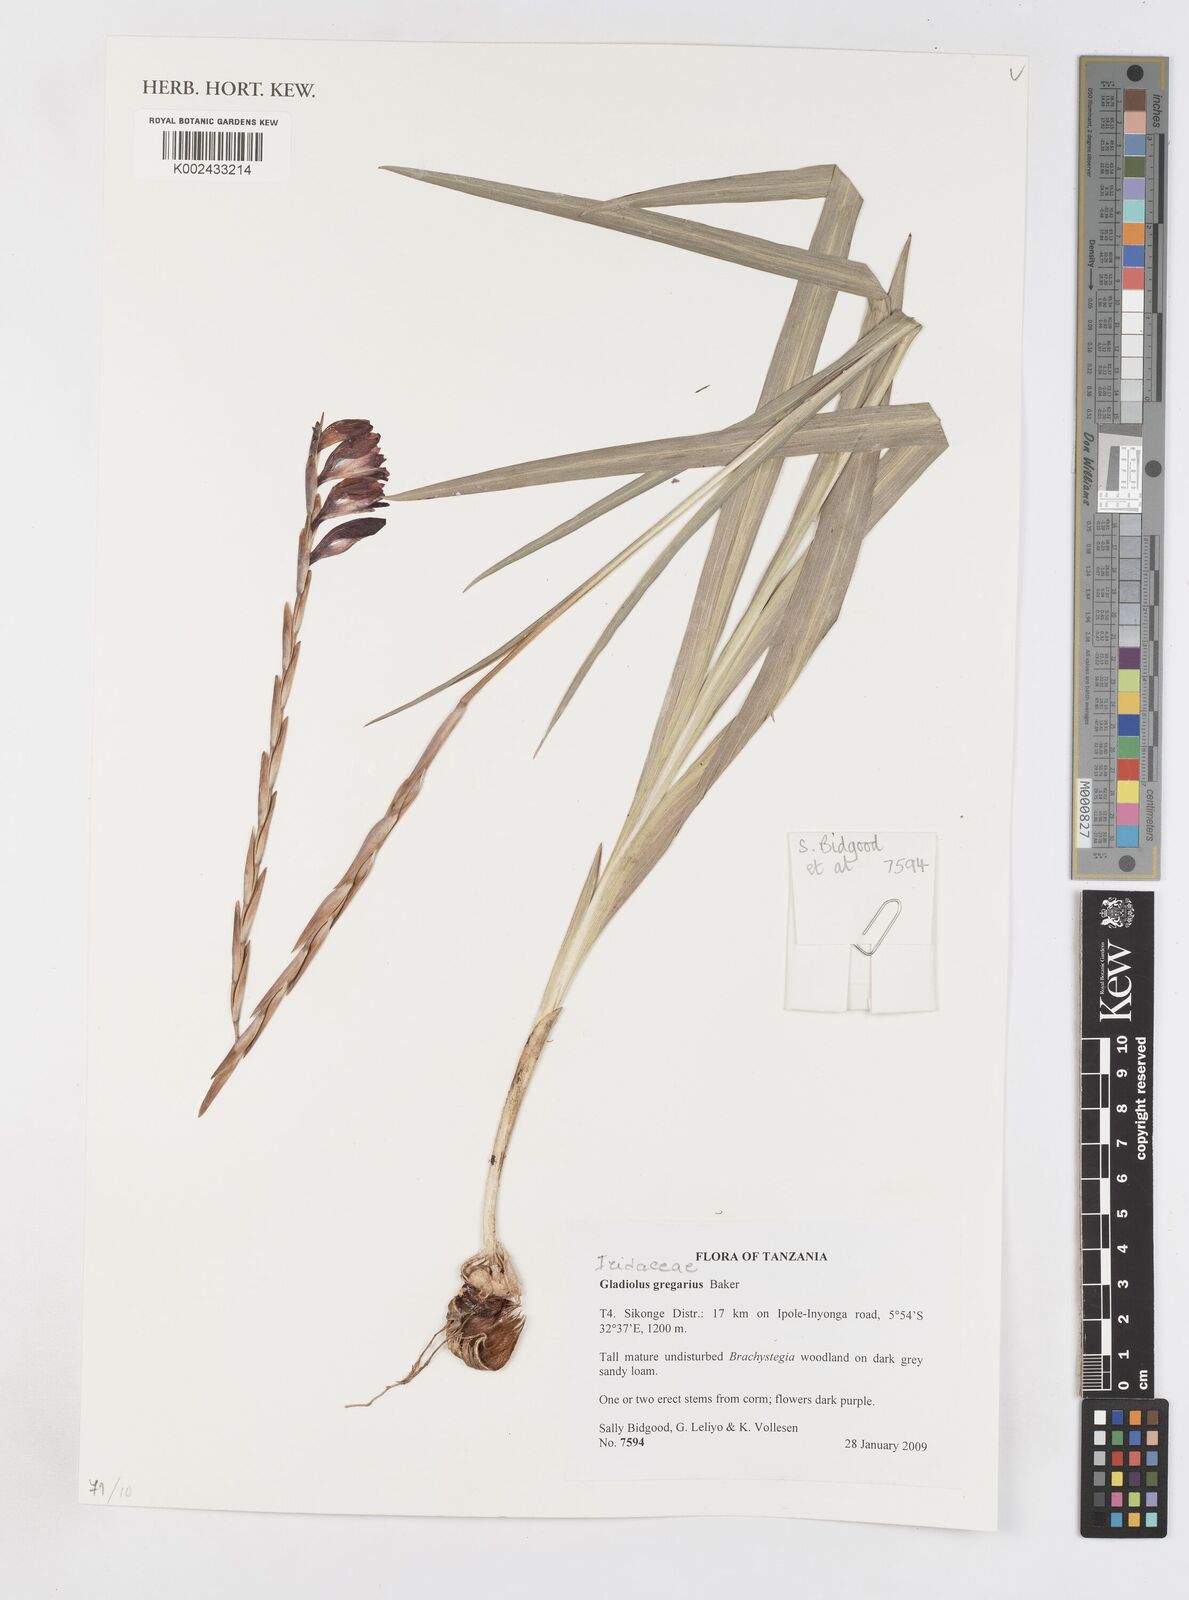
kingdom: Plantae
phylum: Tracheophyta
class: Liliopsida
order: Asparagales
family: Iridaceae
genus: Gladiolus
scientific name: Gladiolus gregarius
